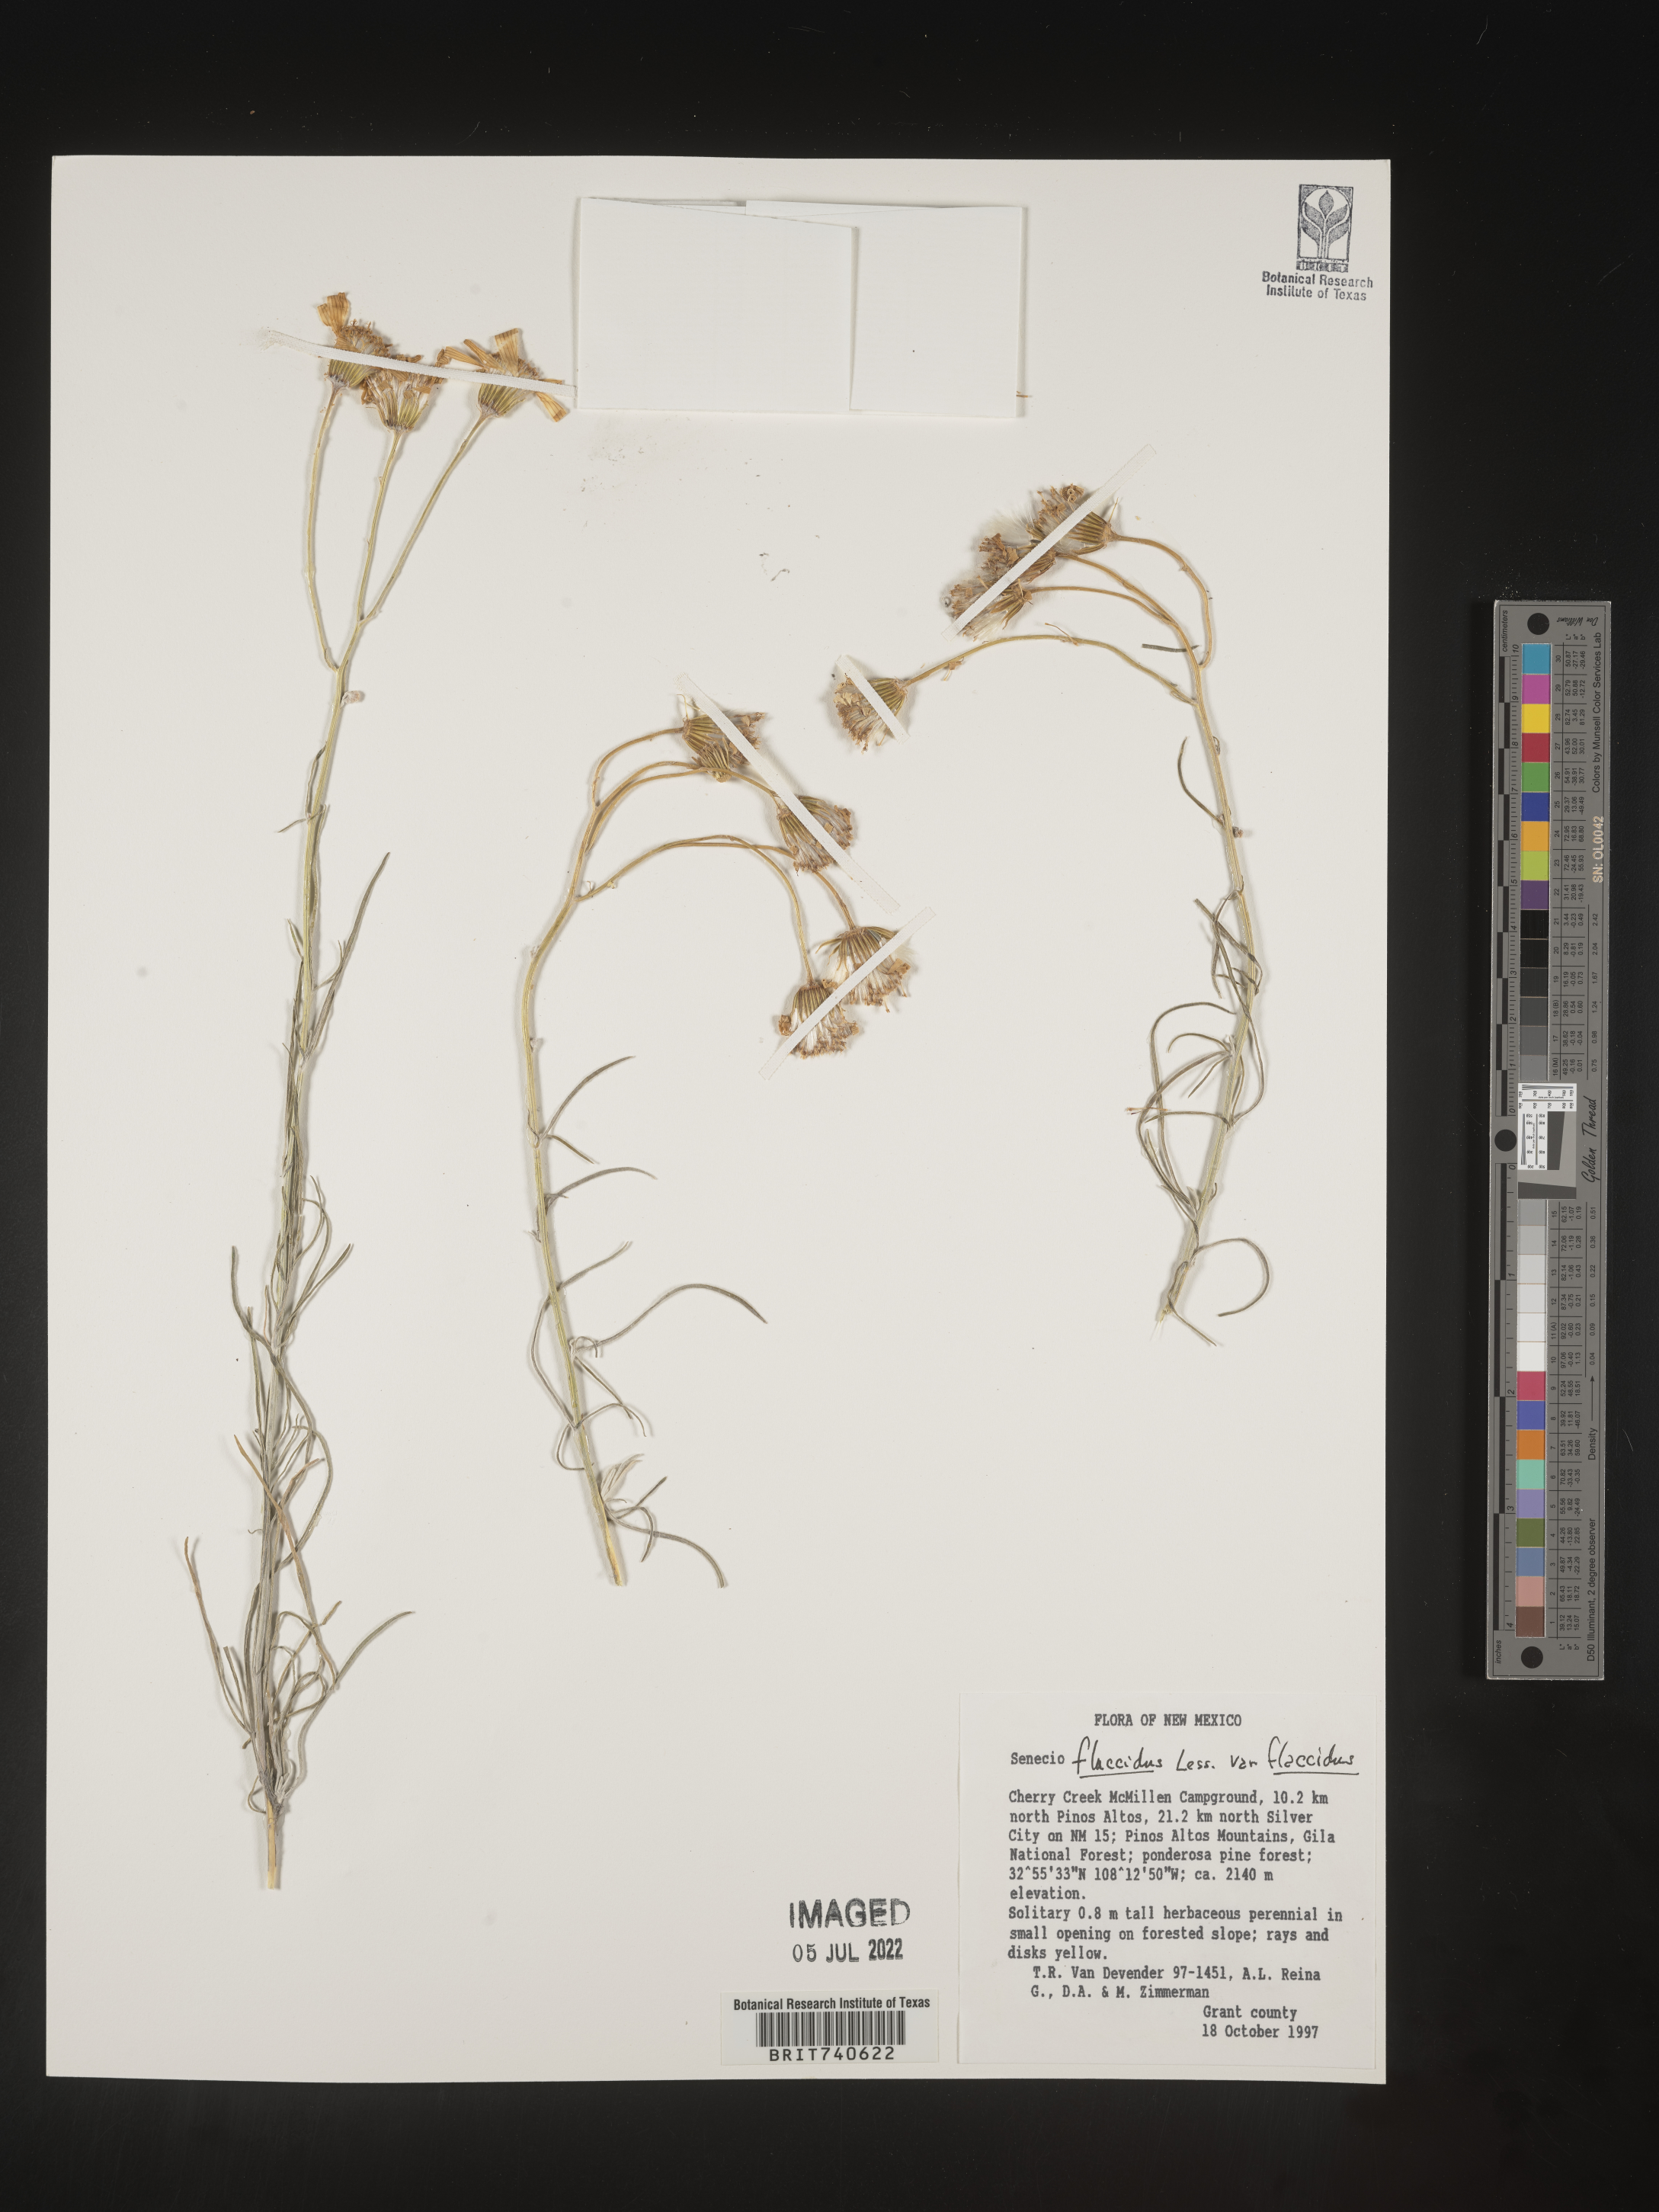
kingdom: Plantae
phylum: Tracheophyta
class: Magnoliopsida
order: Asterales
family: Asteraceae
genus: Senecio
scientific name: Senecio flaccidus
